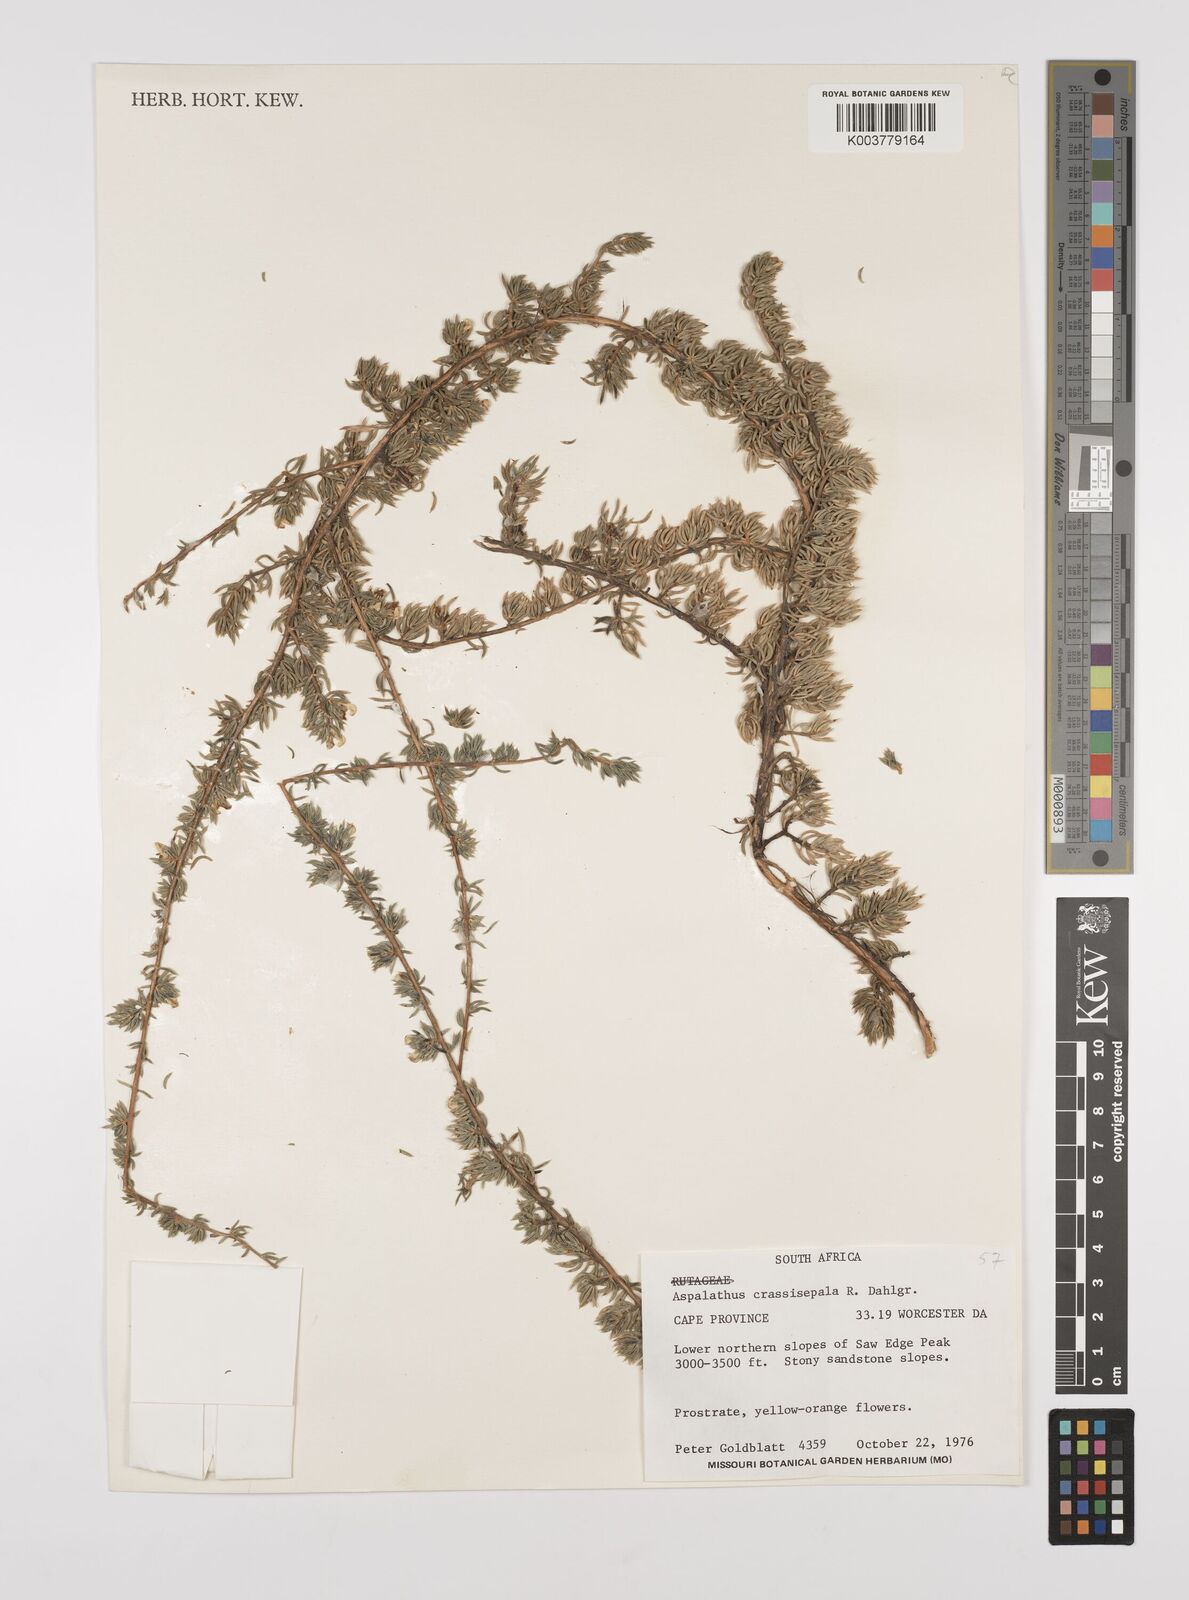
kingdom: Plantae
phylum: Tracheophyta
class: Magnoliopsida
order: Fabales
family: Fabaceae
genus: Aspalathus
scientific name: Aspalathus crassisepala
